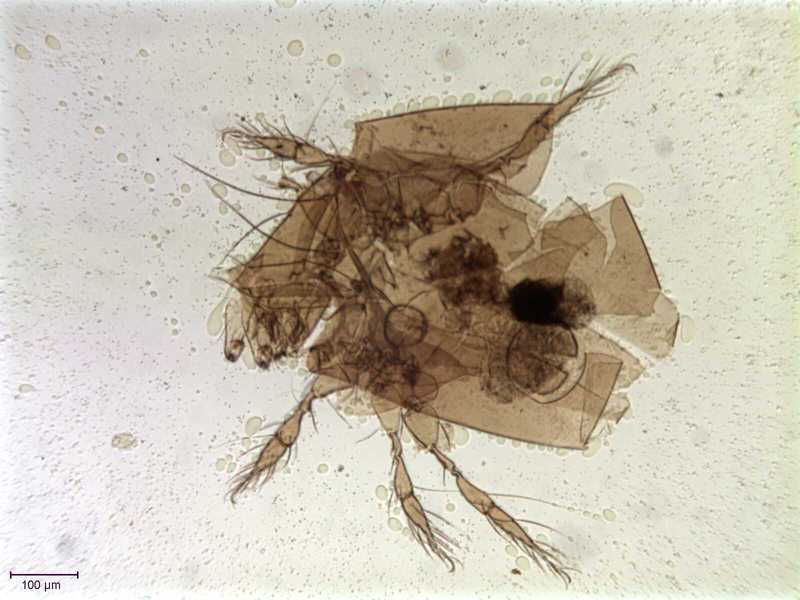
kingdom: Animalia
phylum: Arthropoda
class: Arachnida
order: Sarcoptiformes
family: Chamobatidae
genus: Globozetes
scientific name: Globozetes longipilus
